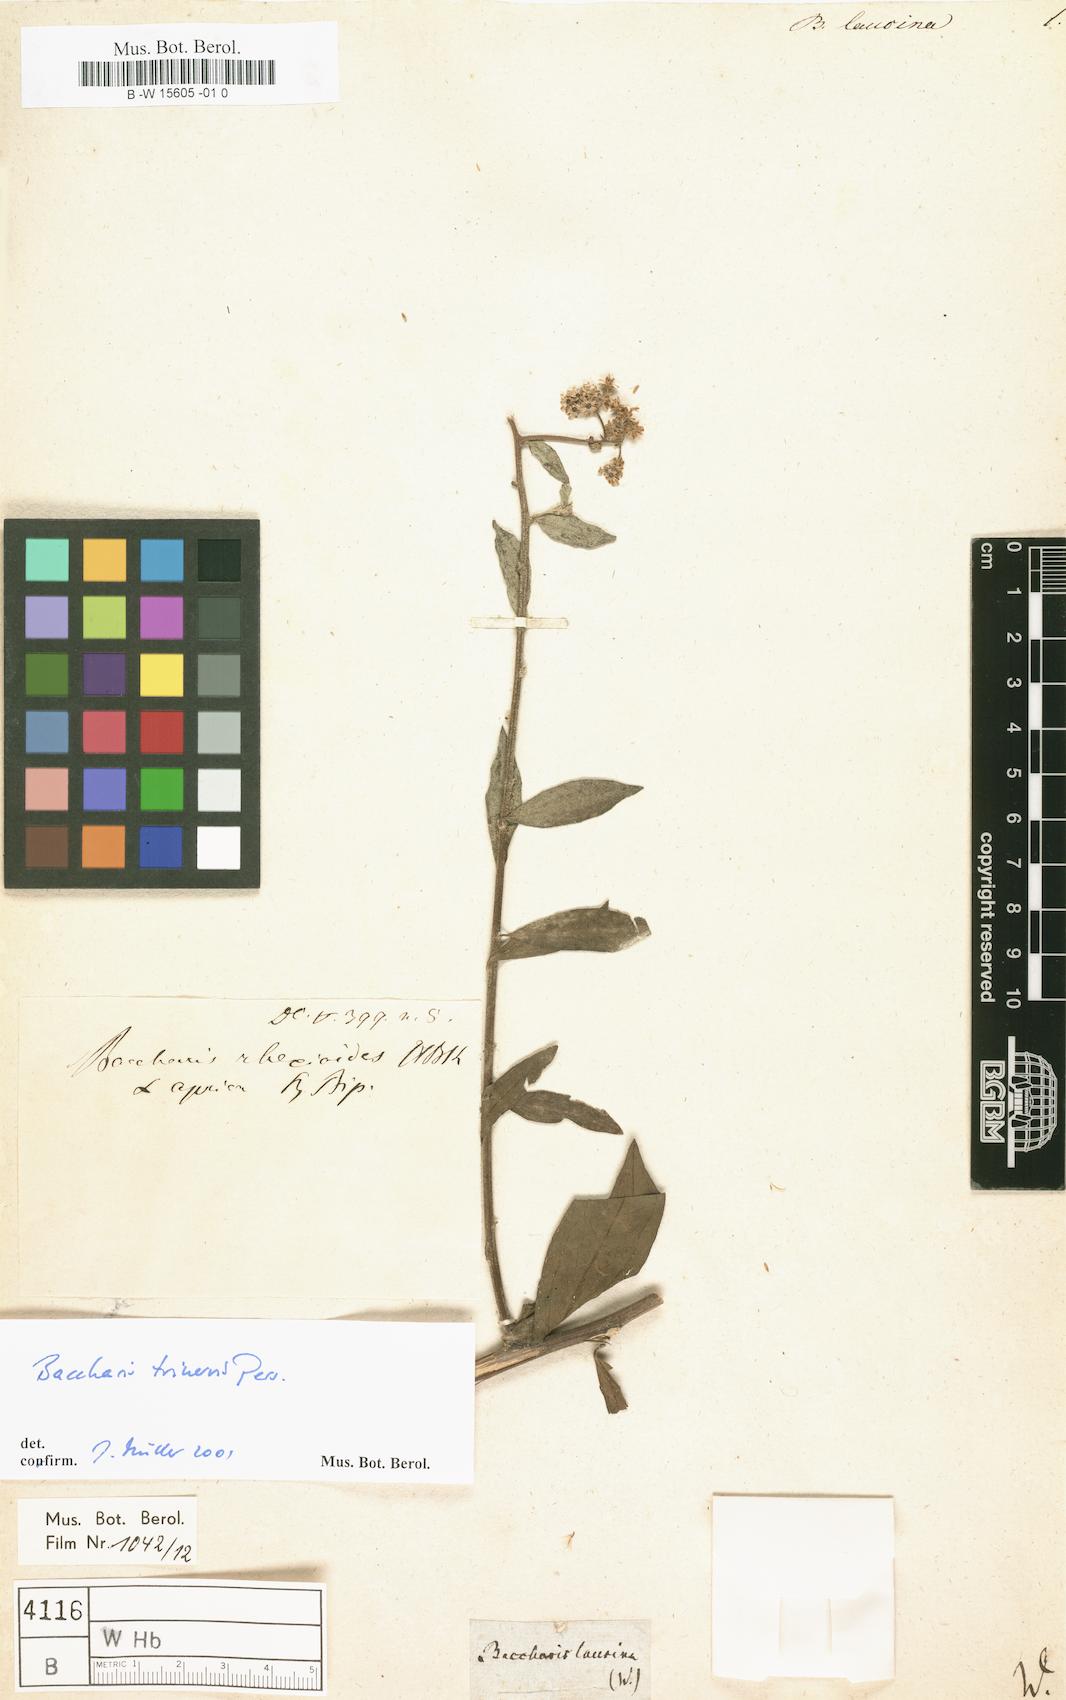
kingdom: Plantae
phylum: Tracheophyta
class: Magnoliopsida
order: Asterales
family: Asteraceae
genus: Baccharis
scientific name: Baccharis
